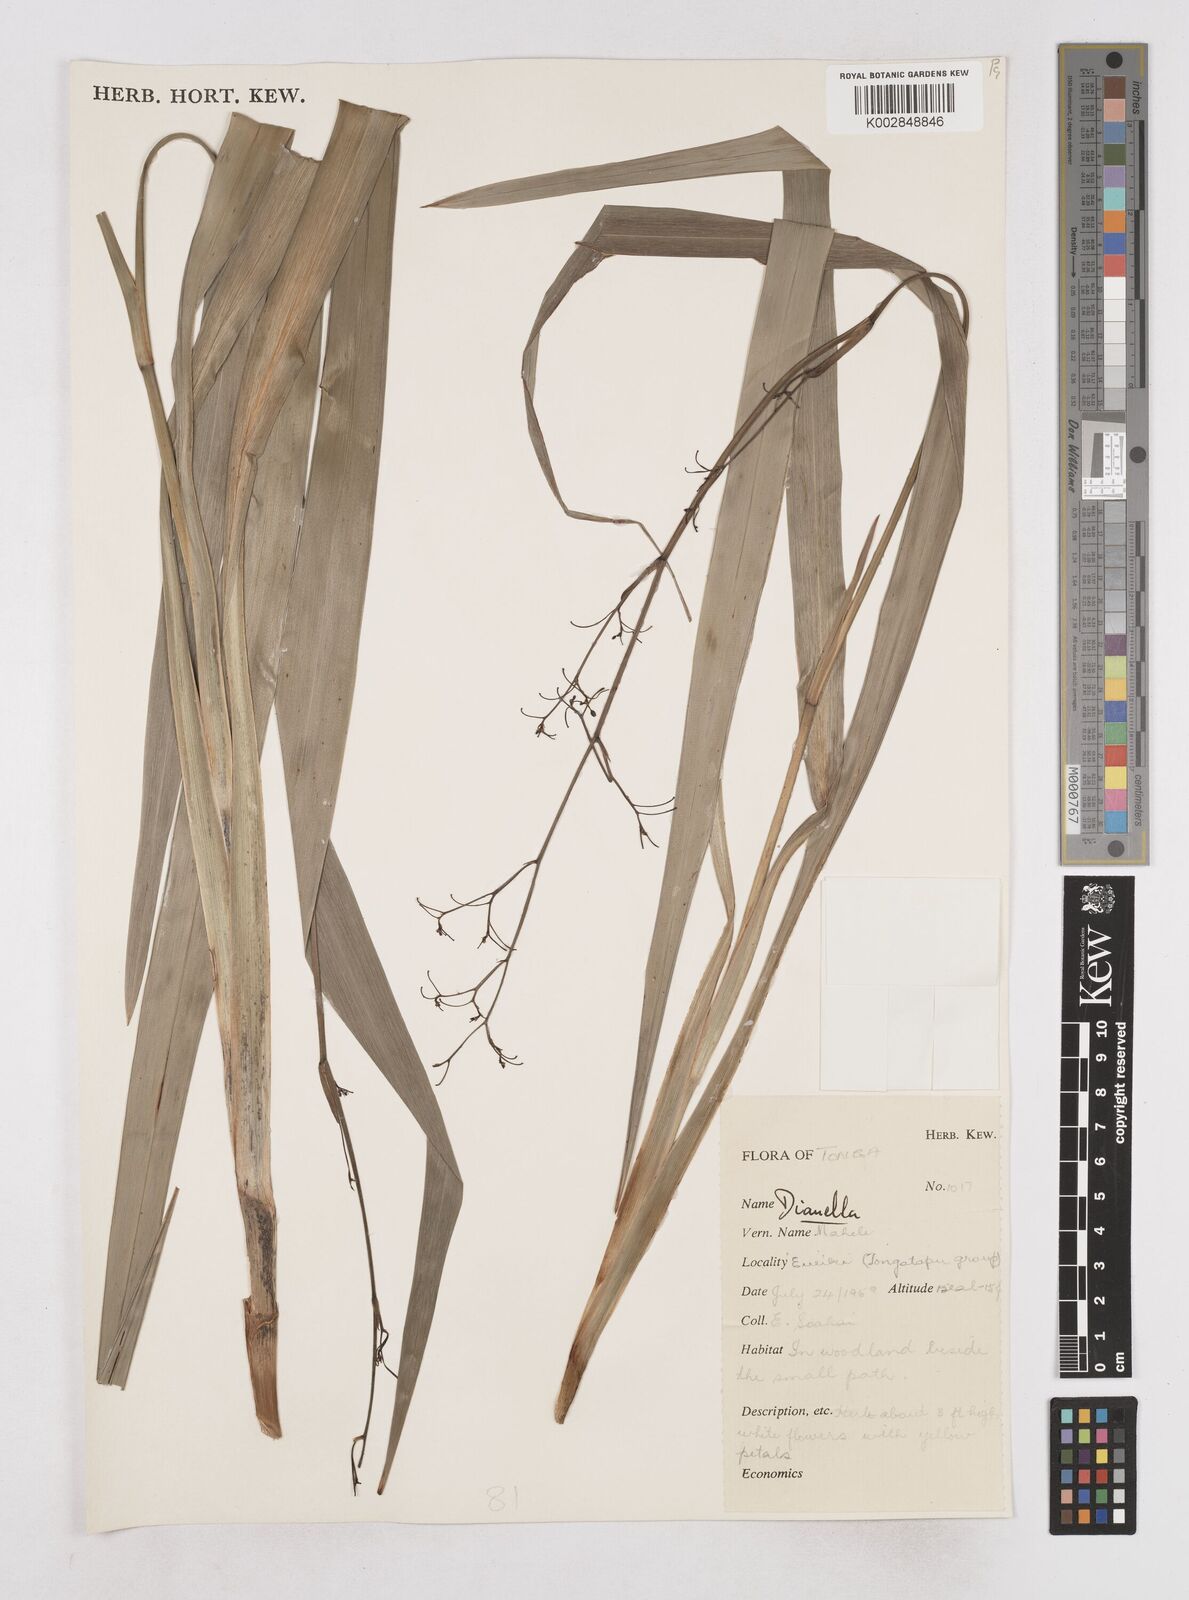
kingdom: Plantae
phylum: Tracheophyta
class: Liliopsida
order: Asparagales
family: Asphodelaceae
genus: Dianella
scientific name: Dianella intermedia
